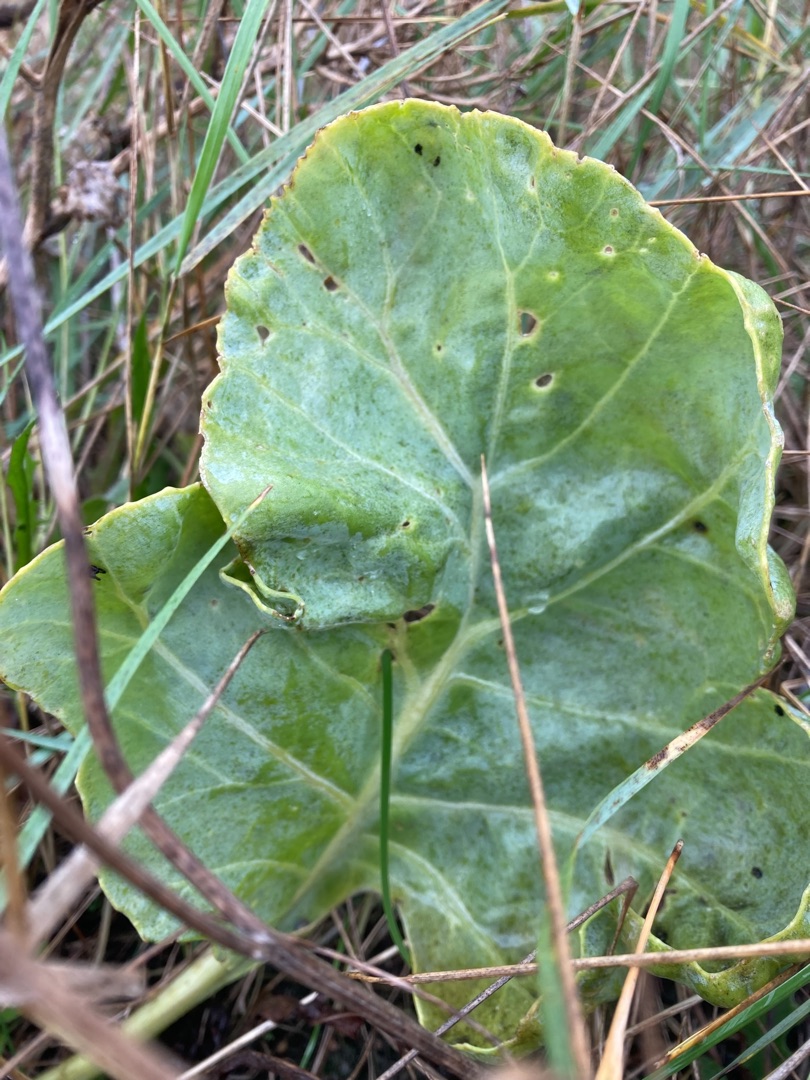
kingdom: Plantae
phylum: Tracheophyta
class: Magnoliopsida
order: Brassicales
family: Brassicaceae
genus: Crambe
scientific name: Crambe maritima
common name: Strandkål
